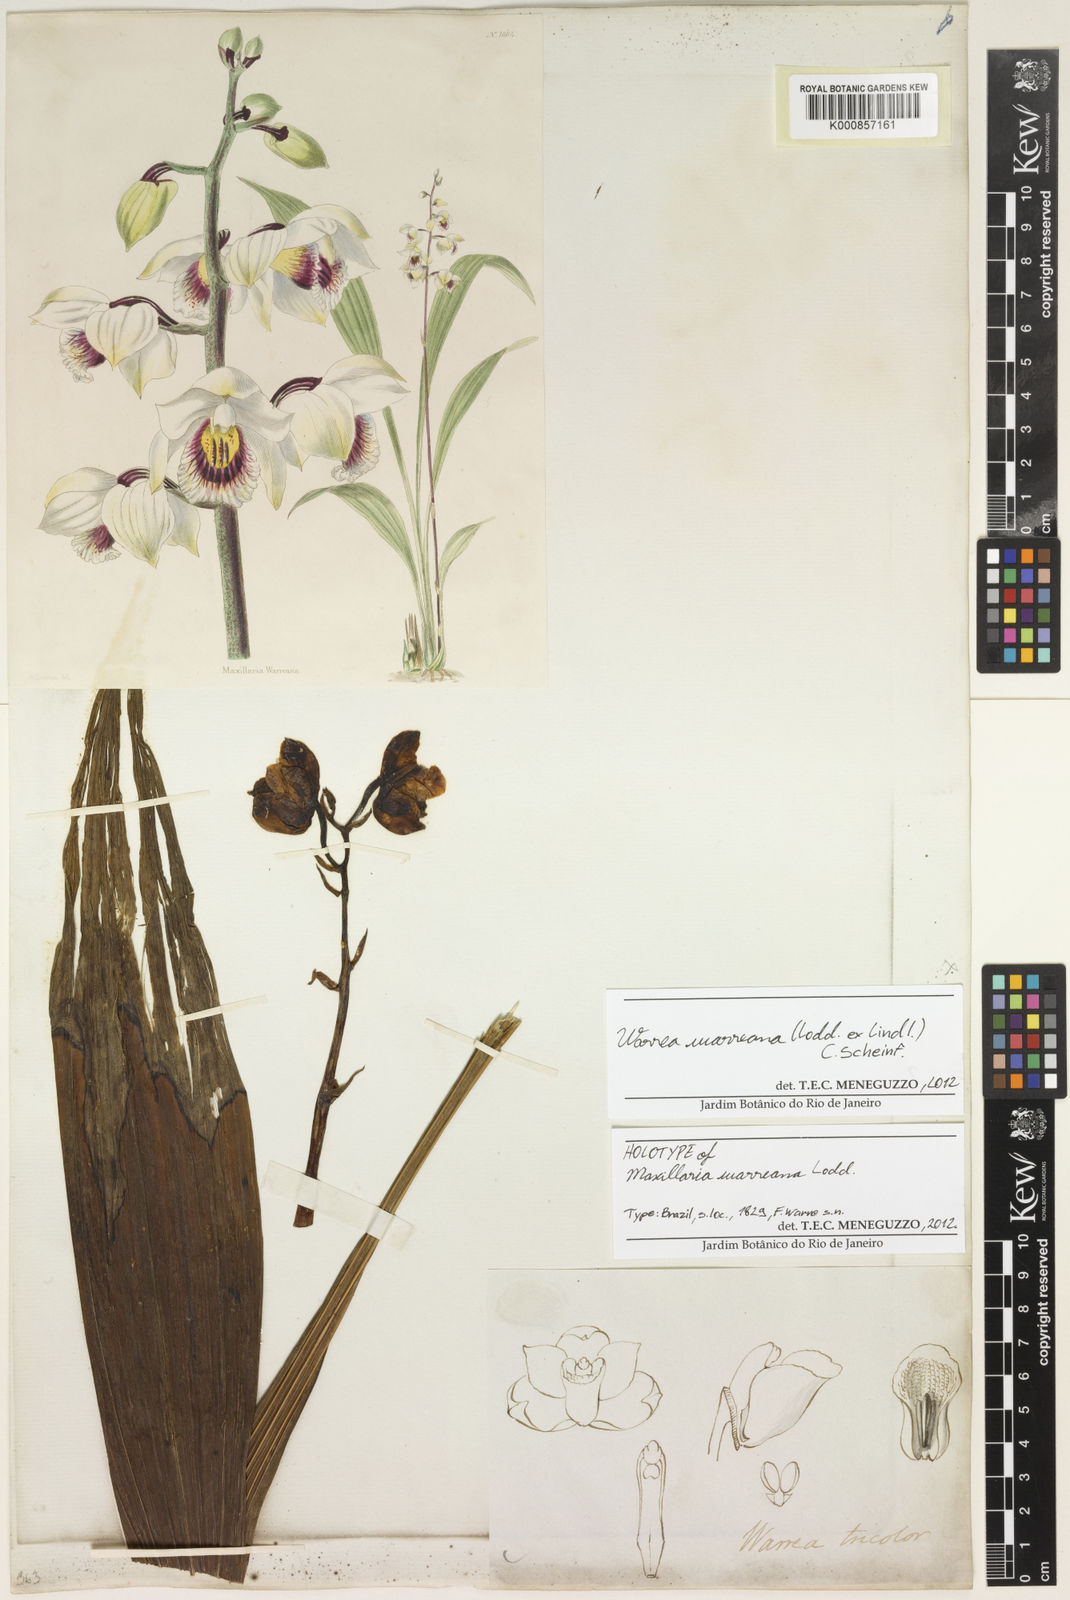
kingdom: Plantae
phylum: Tracheophyta
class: Liliopsida
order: Asparagales
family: Orchidaceae
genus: Warrea
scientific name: Warrea warreana
